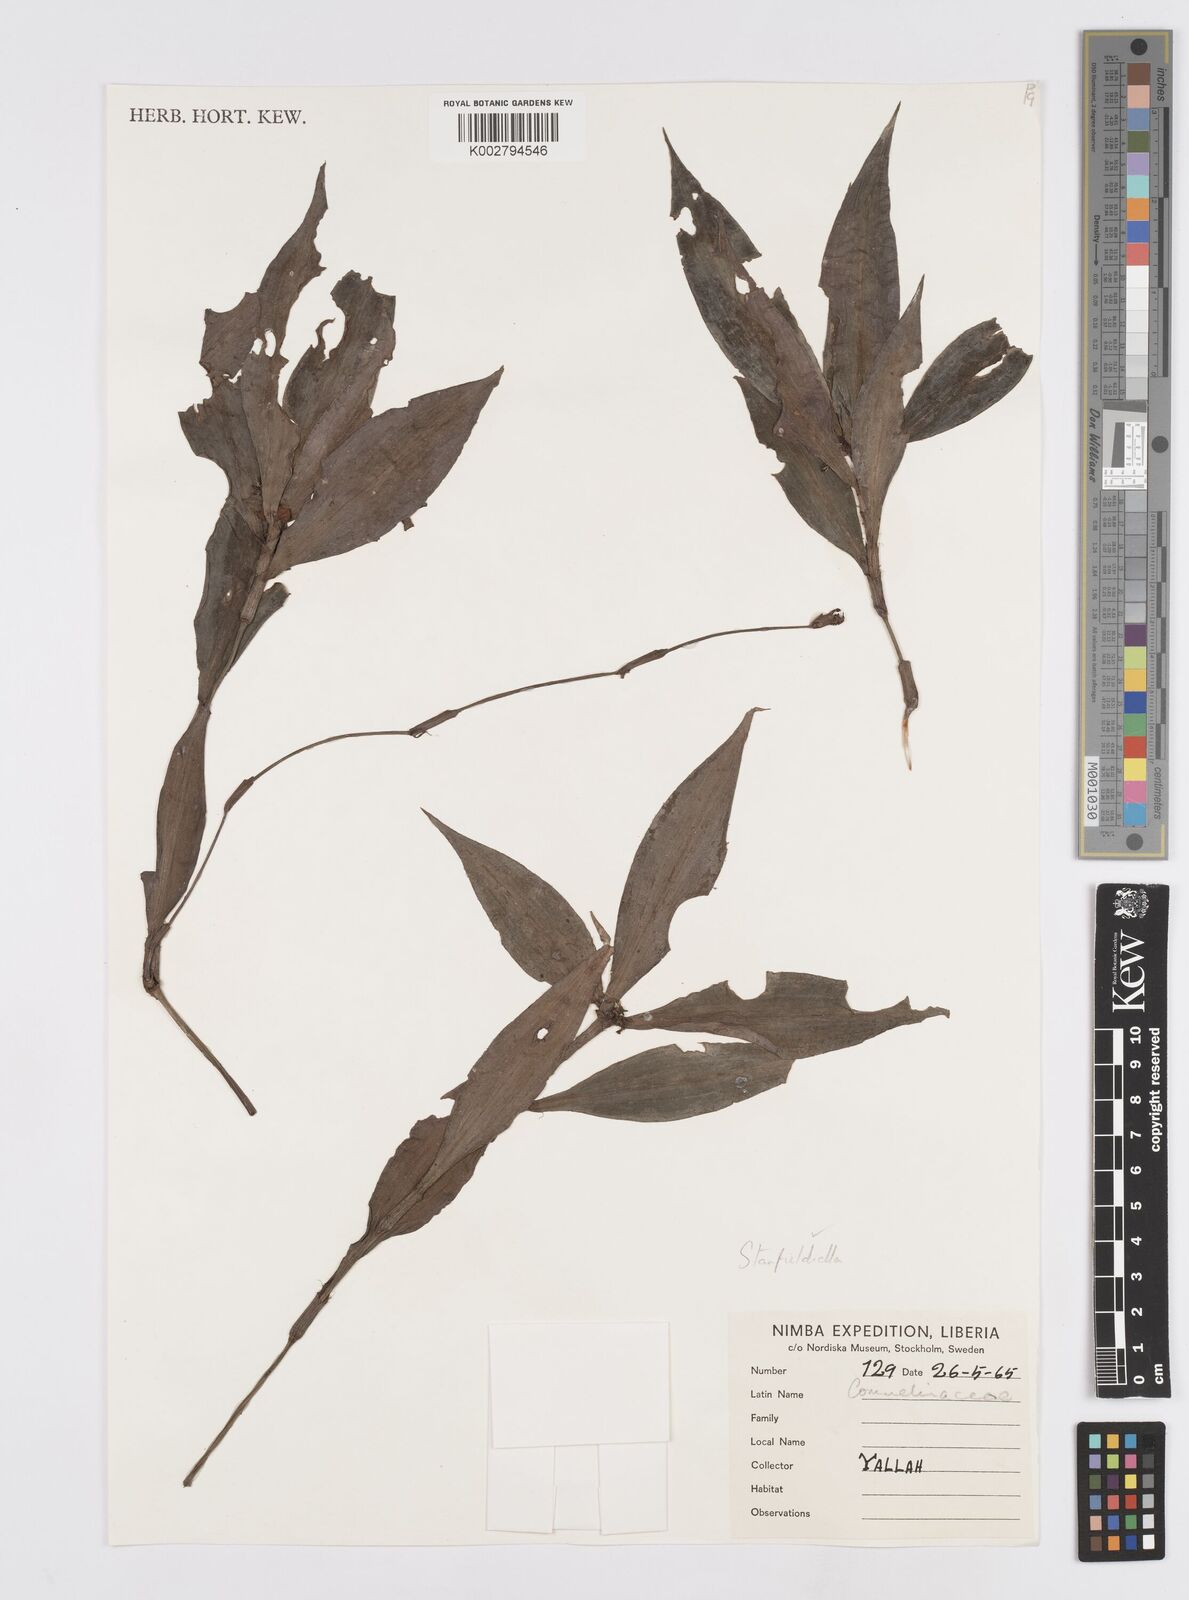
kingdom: Plantae
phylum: Tracheophyta
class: Liliopsida
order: Commelinales
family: Commelinaceae
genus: Stanfieldiella
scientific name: Stanfieldiella
